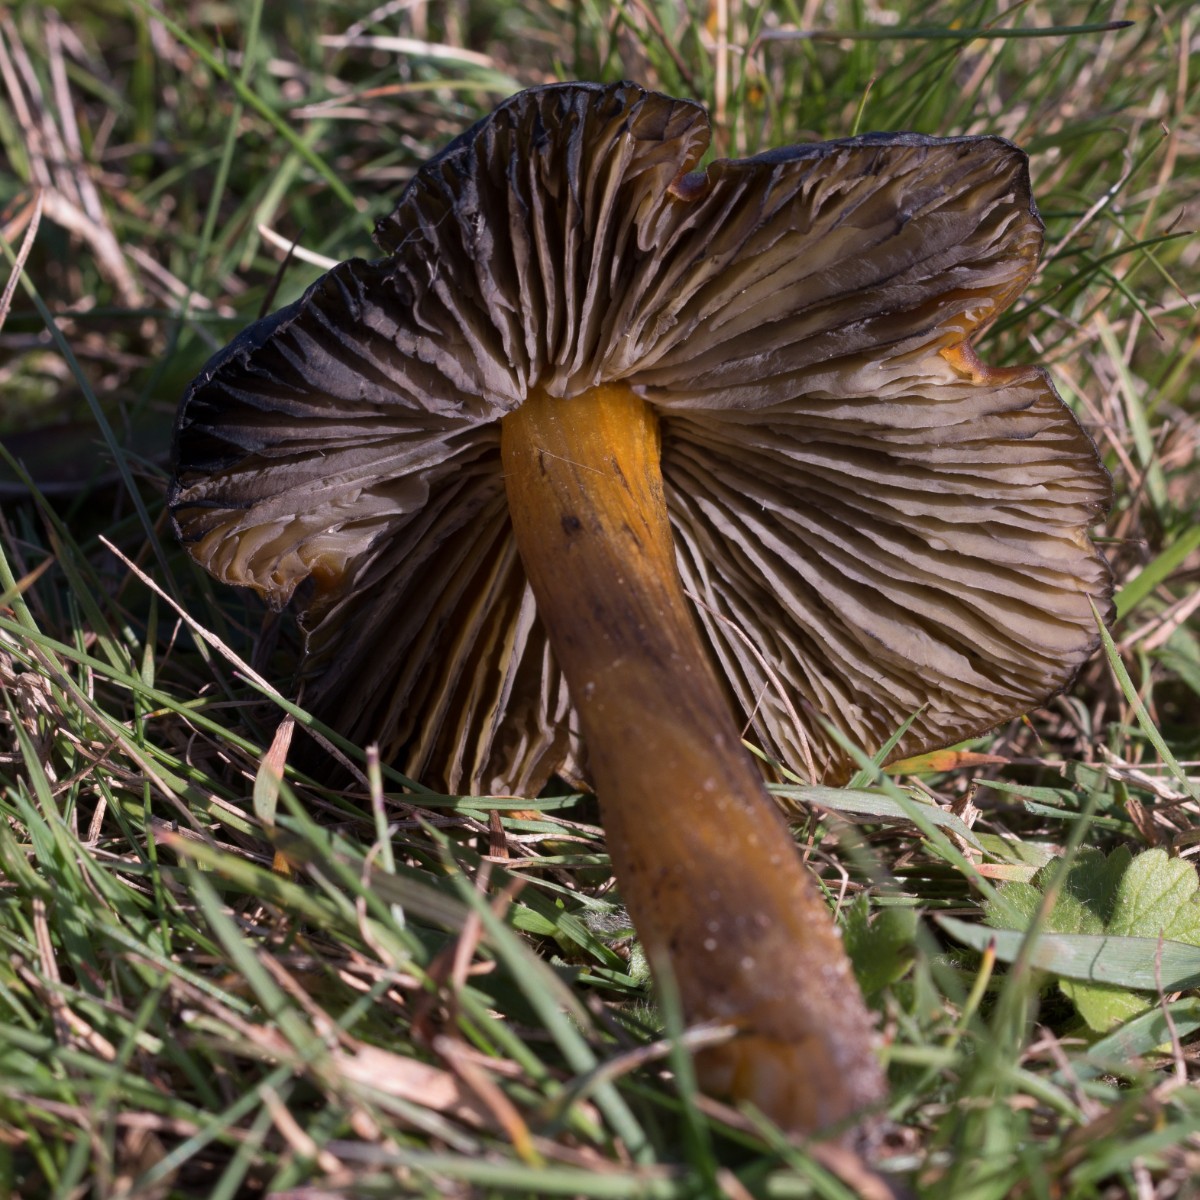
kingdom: Fungi
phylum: Basidiomycota
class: Agaricomycetes
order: Agaricales
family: Hygrophoraceae
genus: Hygrocybe
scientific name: Hygrocybe conica
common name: kegle-vokshat
